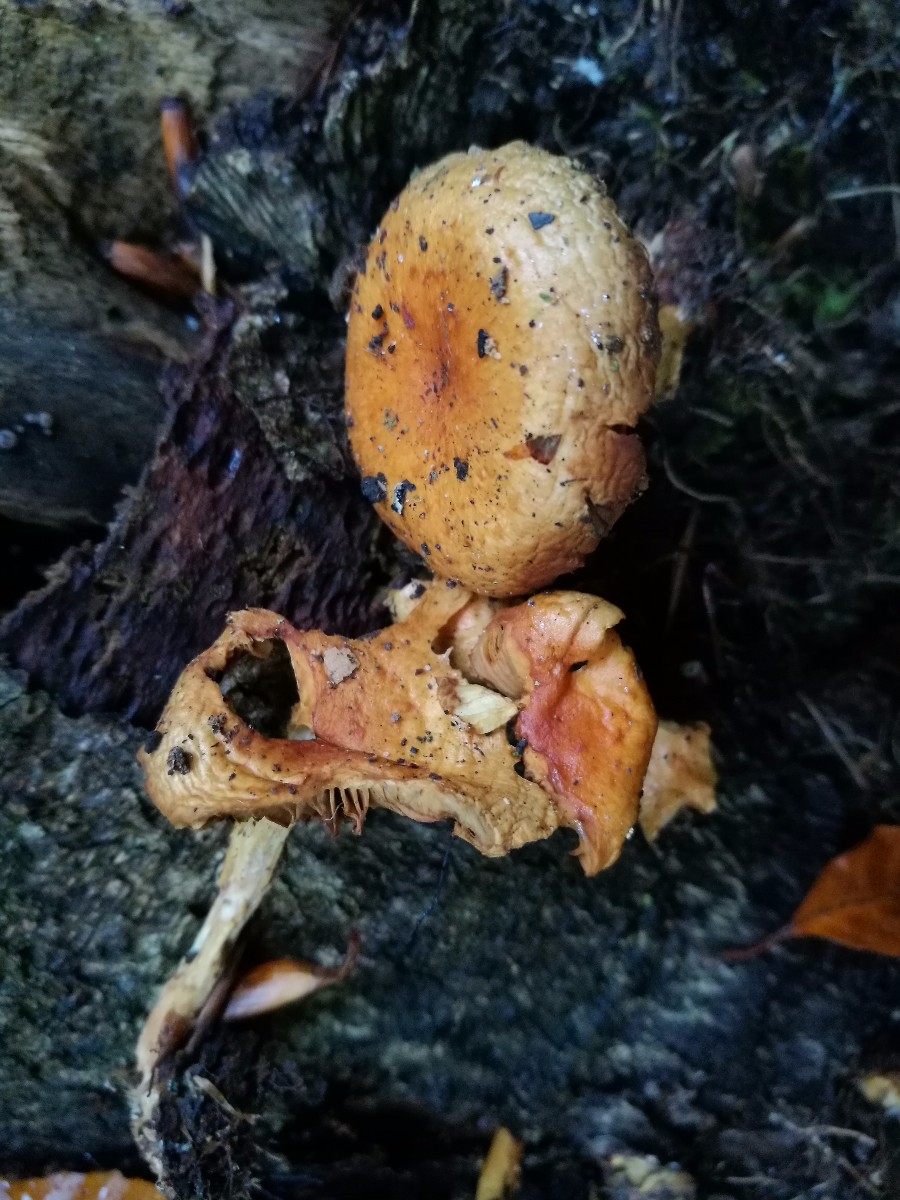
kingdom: Fungi
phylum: Basidiomycota
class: Agaricomycetes
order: Agaricales
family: Strophariaceae
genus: Pholiota
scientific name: Pholiota carbonaria
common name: kul-skælhat
